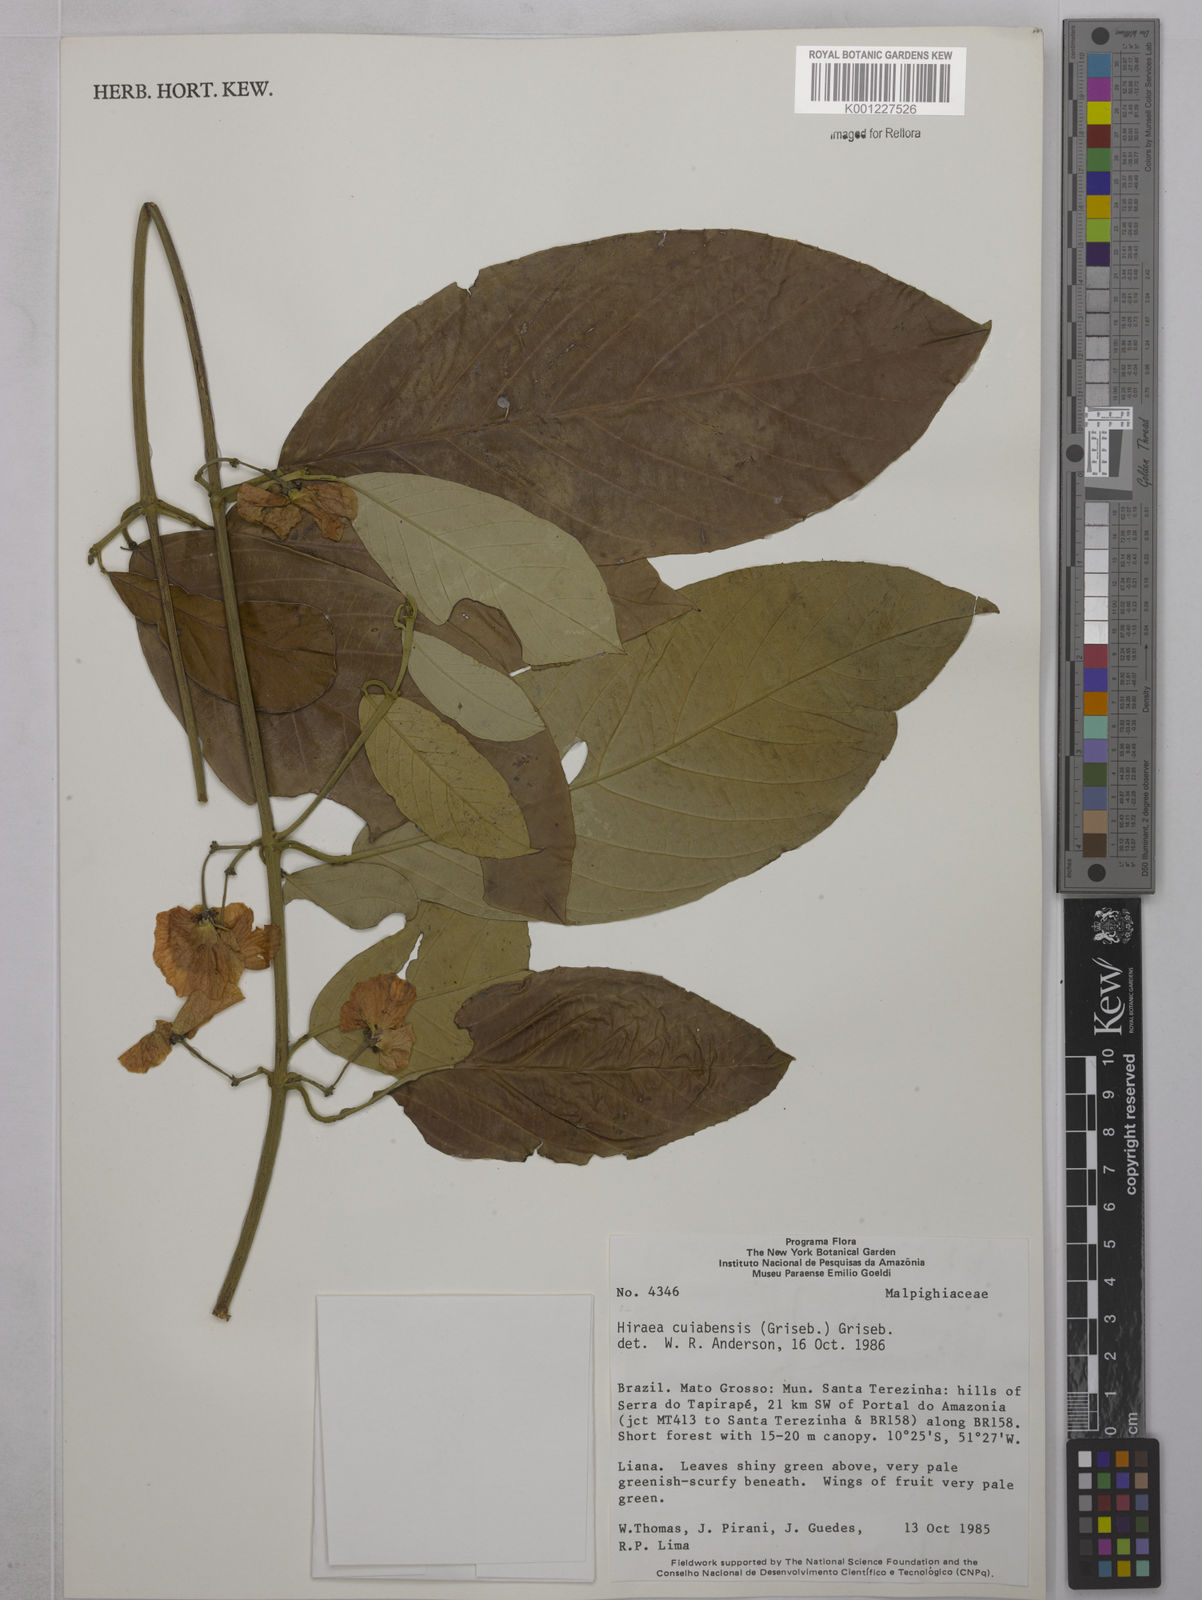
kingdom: Plantae
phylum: Tracheophyta
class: Magnoliopsida
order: Malpighiales
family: Malpighiaceae
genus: Hiraea
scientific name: Hiraea cuiabensis
